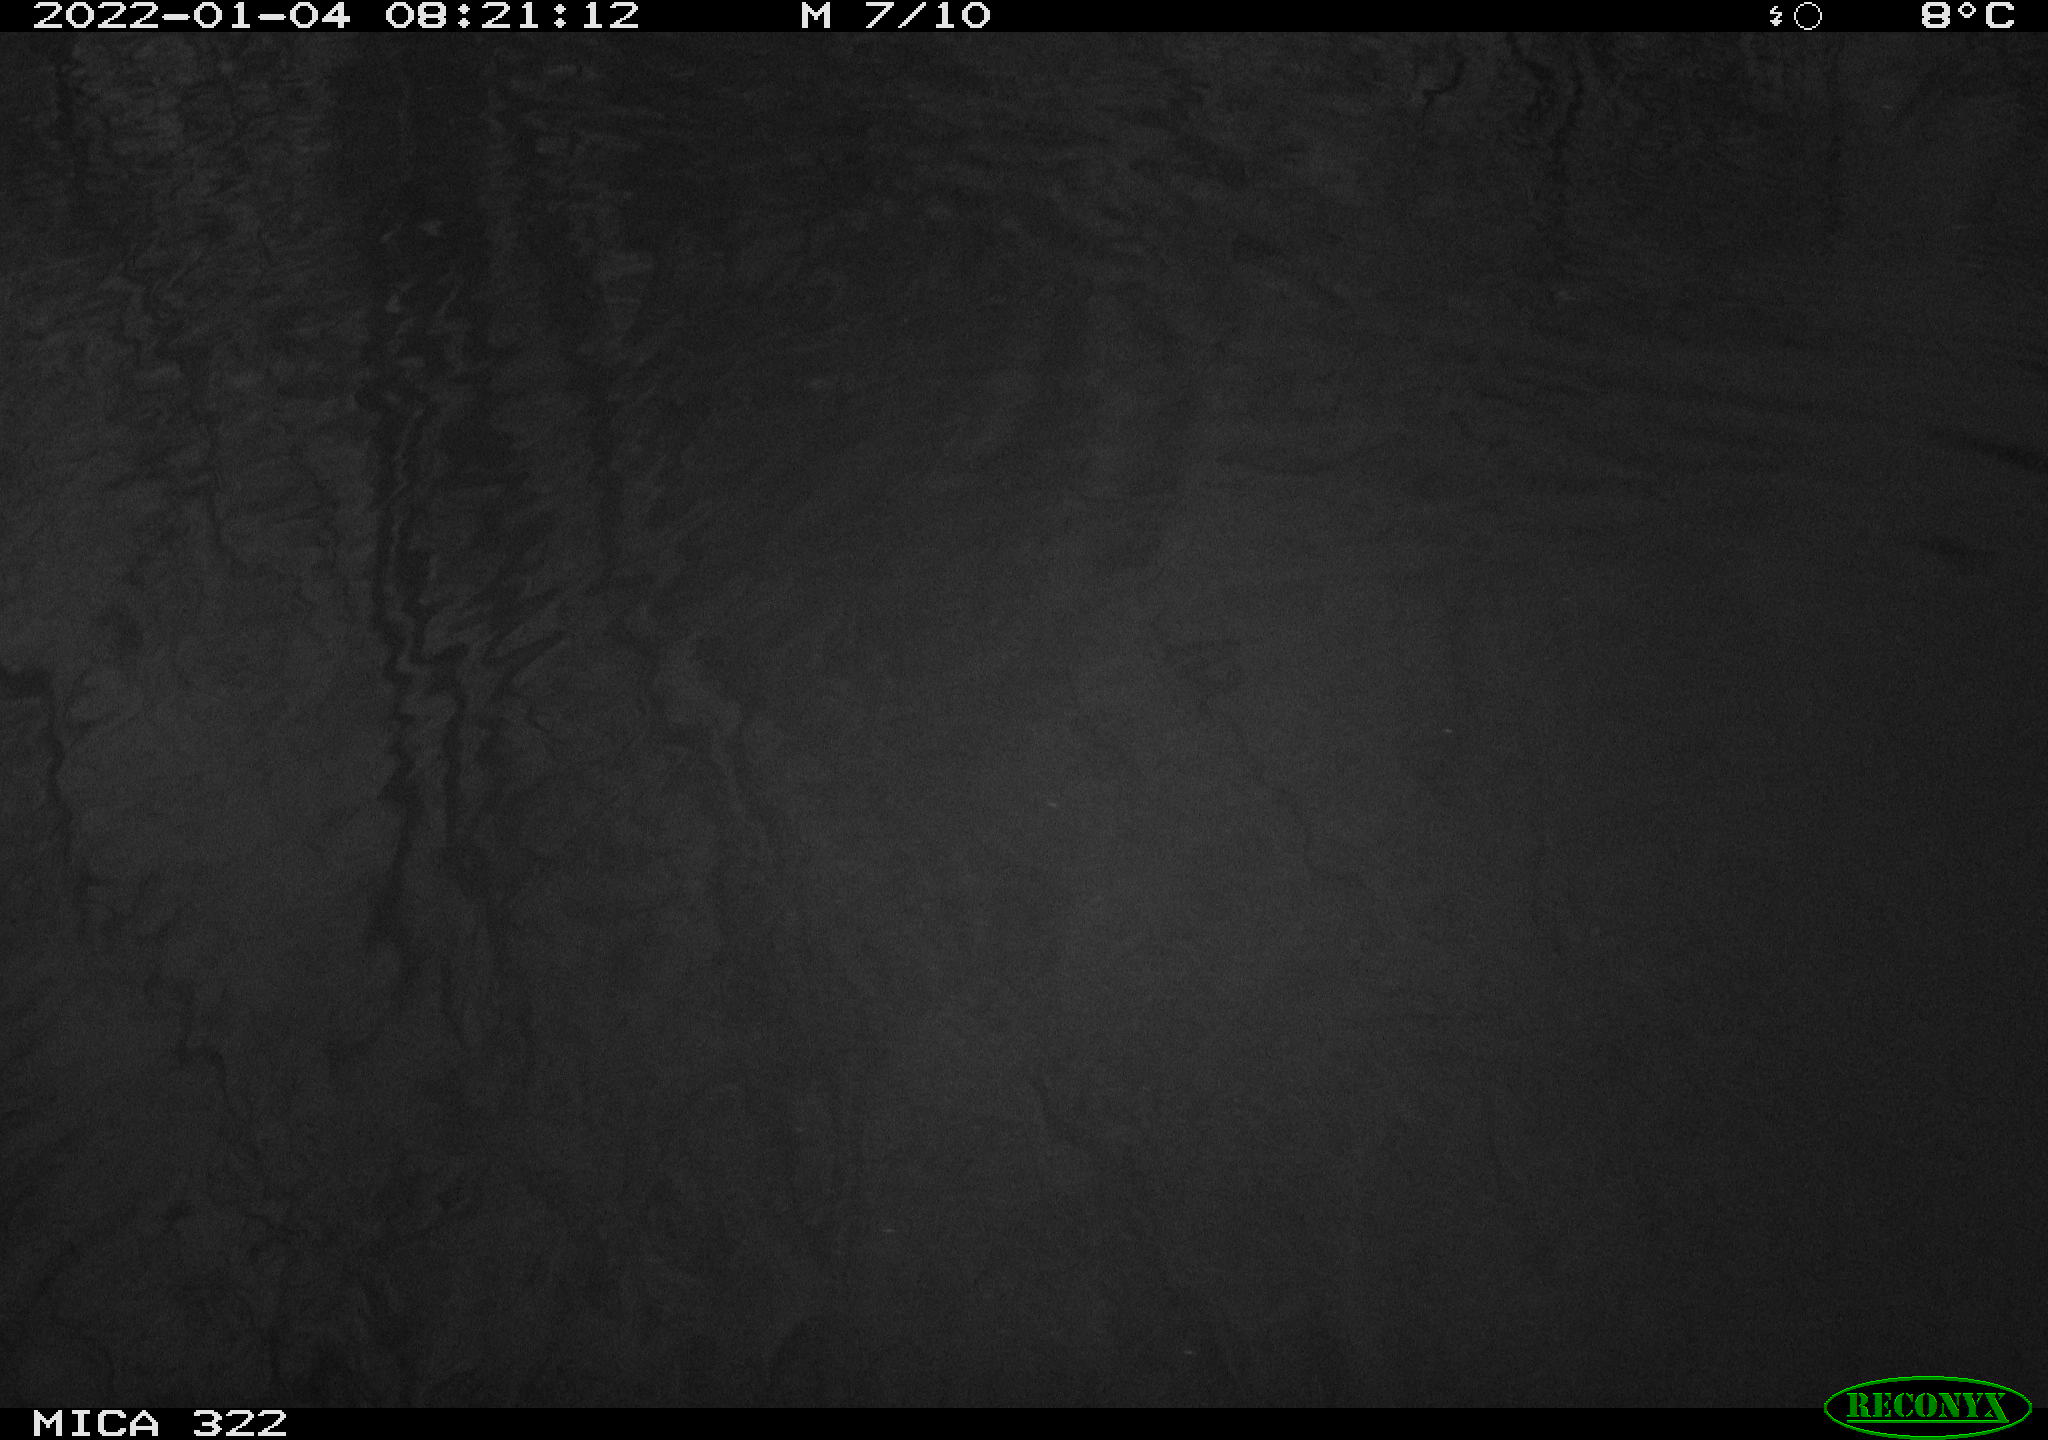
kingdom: Animalia
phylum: Chordata
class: Aves
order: Anseriformes
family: Anatidae
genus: Anas
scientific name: Anas
